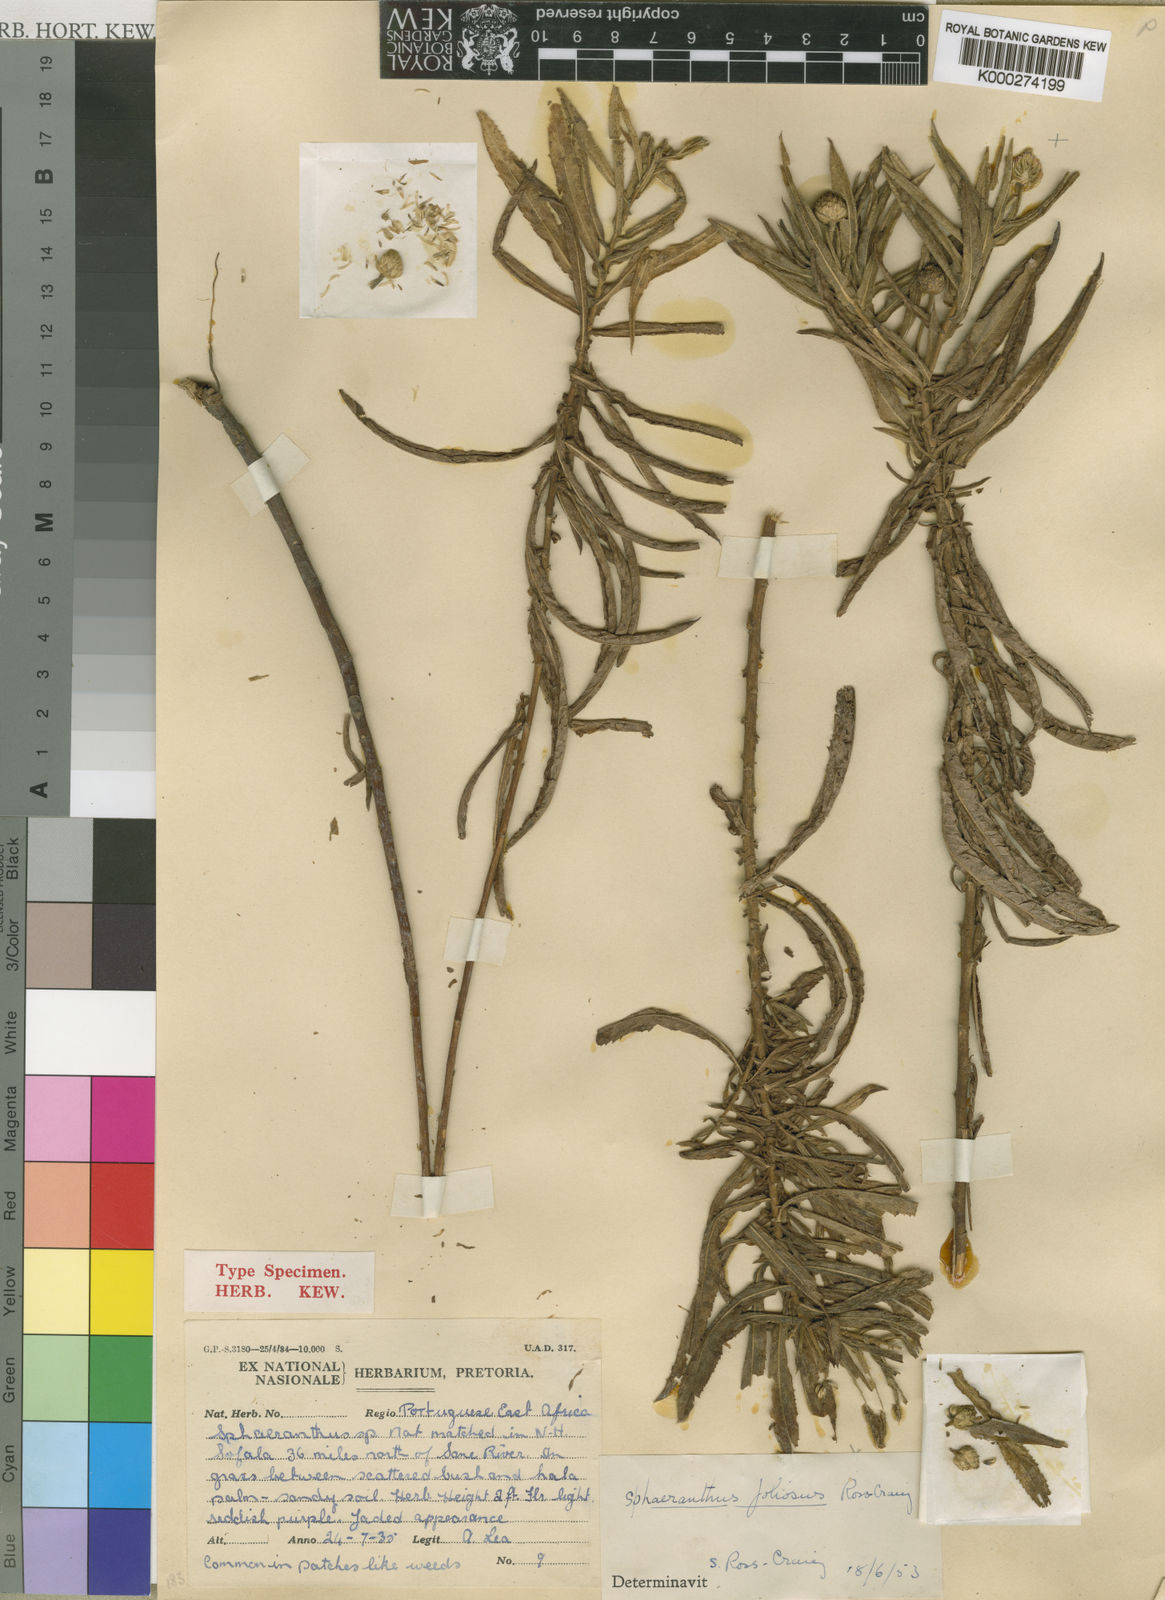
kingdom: Plantae
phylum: Tracheophyta
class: Magnoliopsida
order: Asterales
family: Asteraceae
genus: Sphaeranthus
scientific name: Sphaeranthus foliosus
